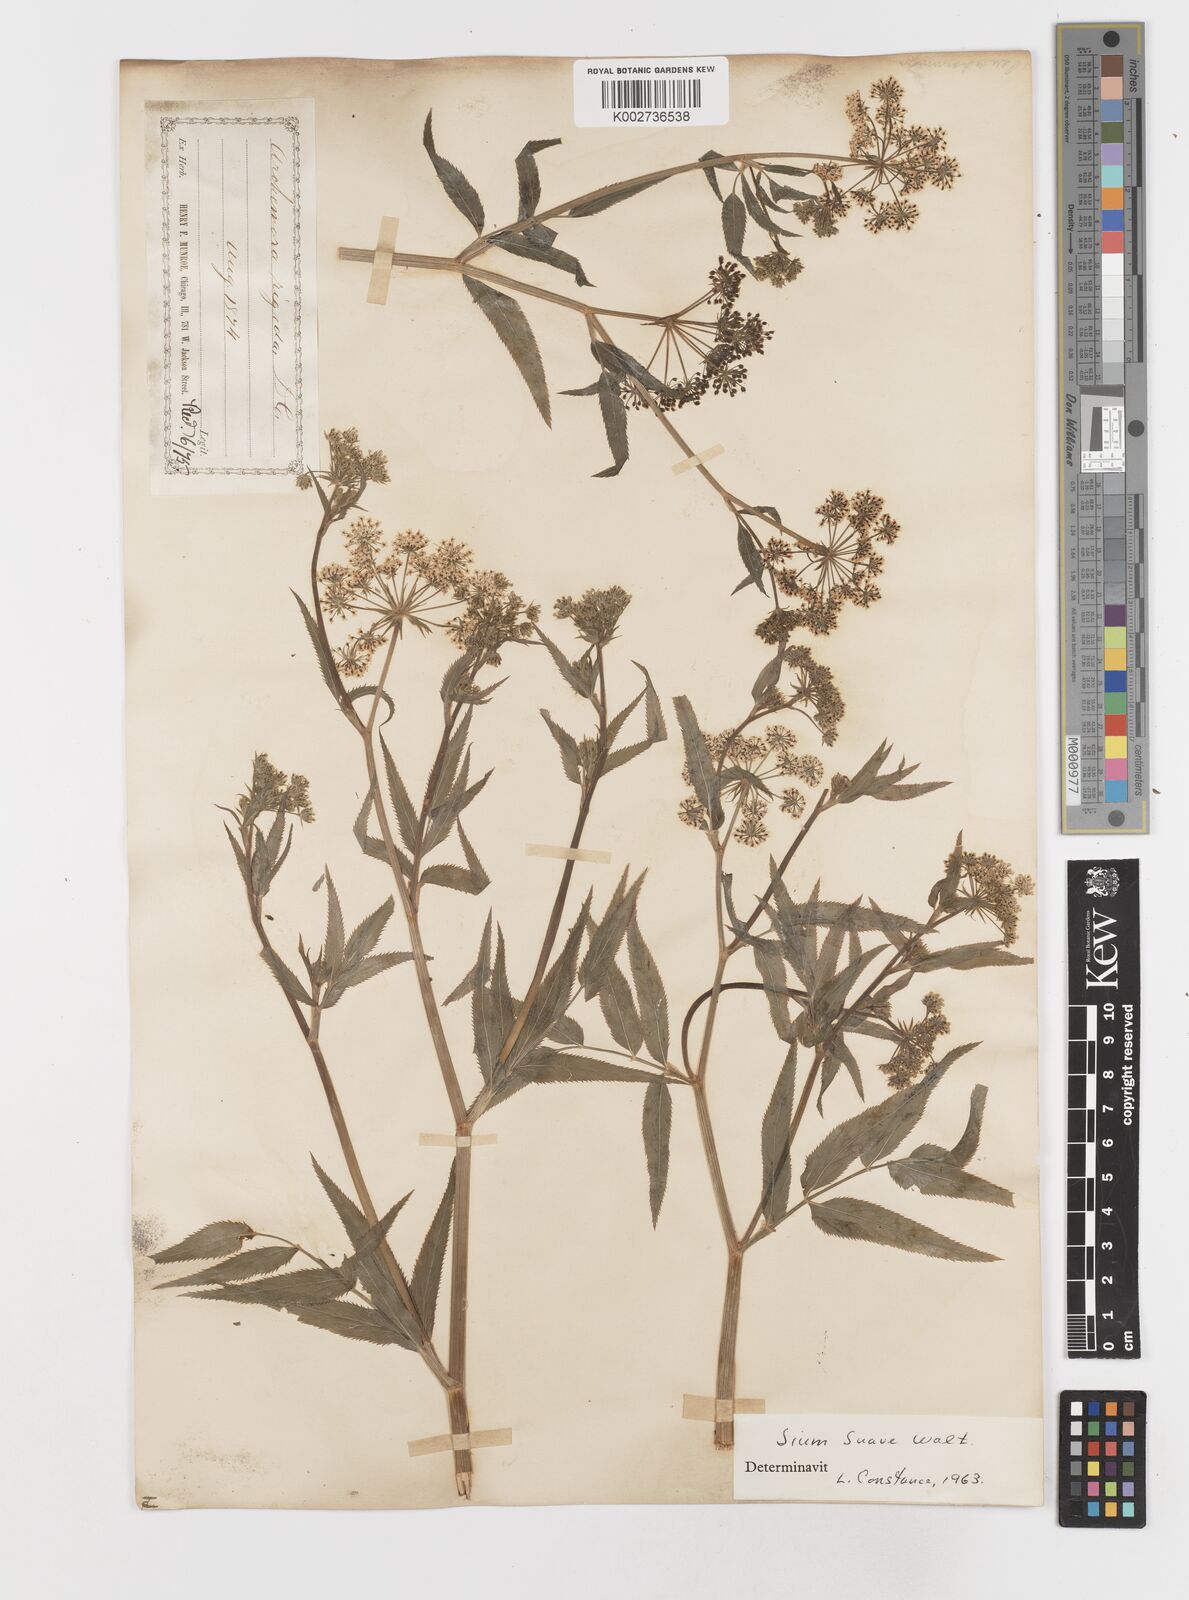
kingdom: Plantae
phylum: Tracheophyta
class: Magnoliopsida
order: Apiales
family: Apiaceae
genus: Sium
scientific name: Sium suave
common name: Hemlock water-parsnip
